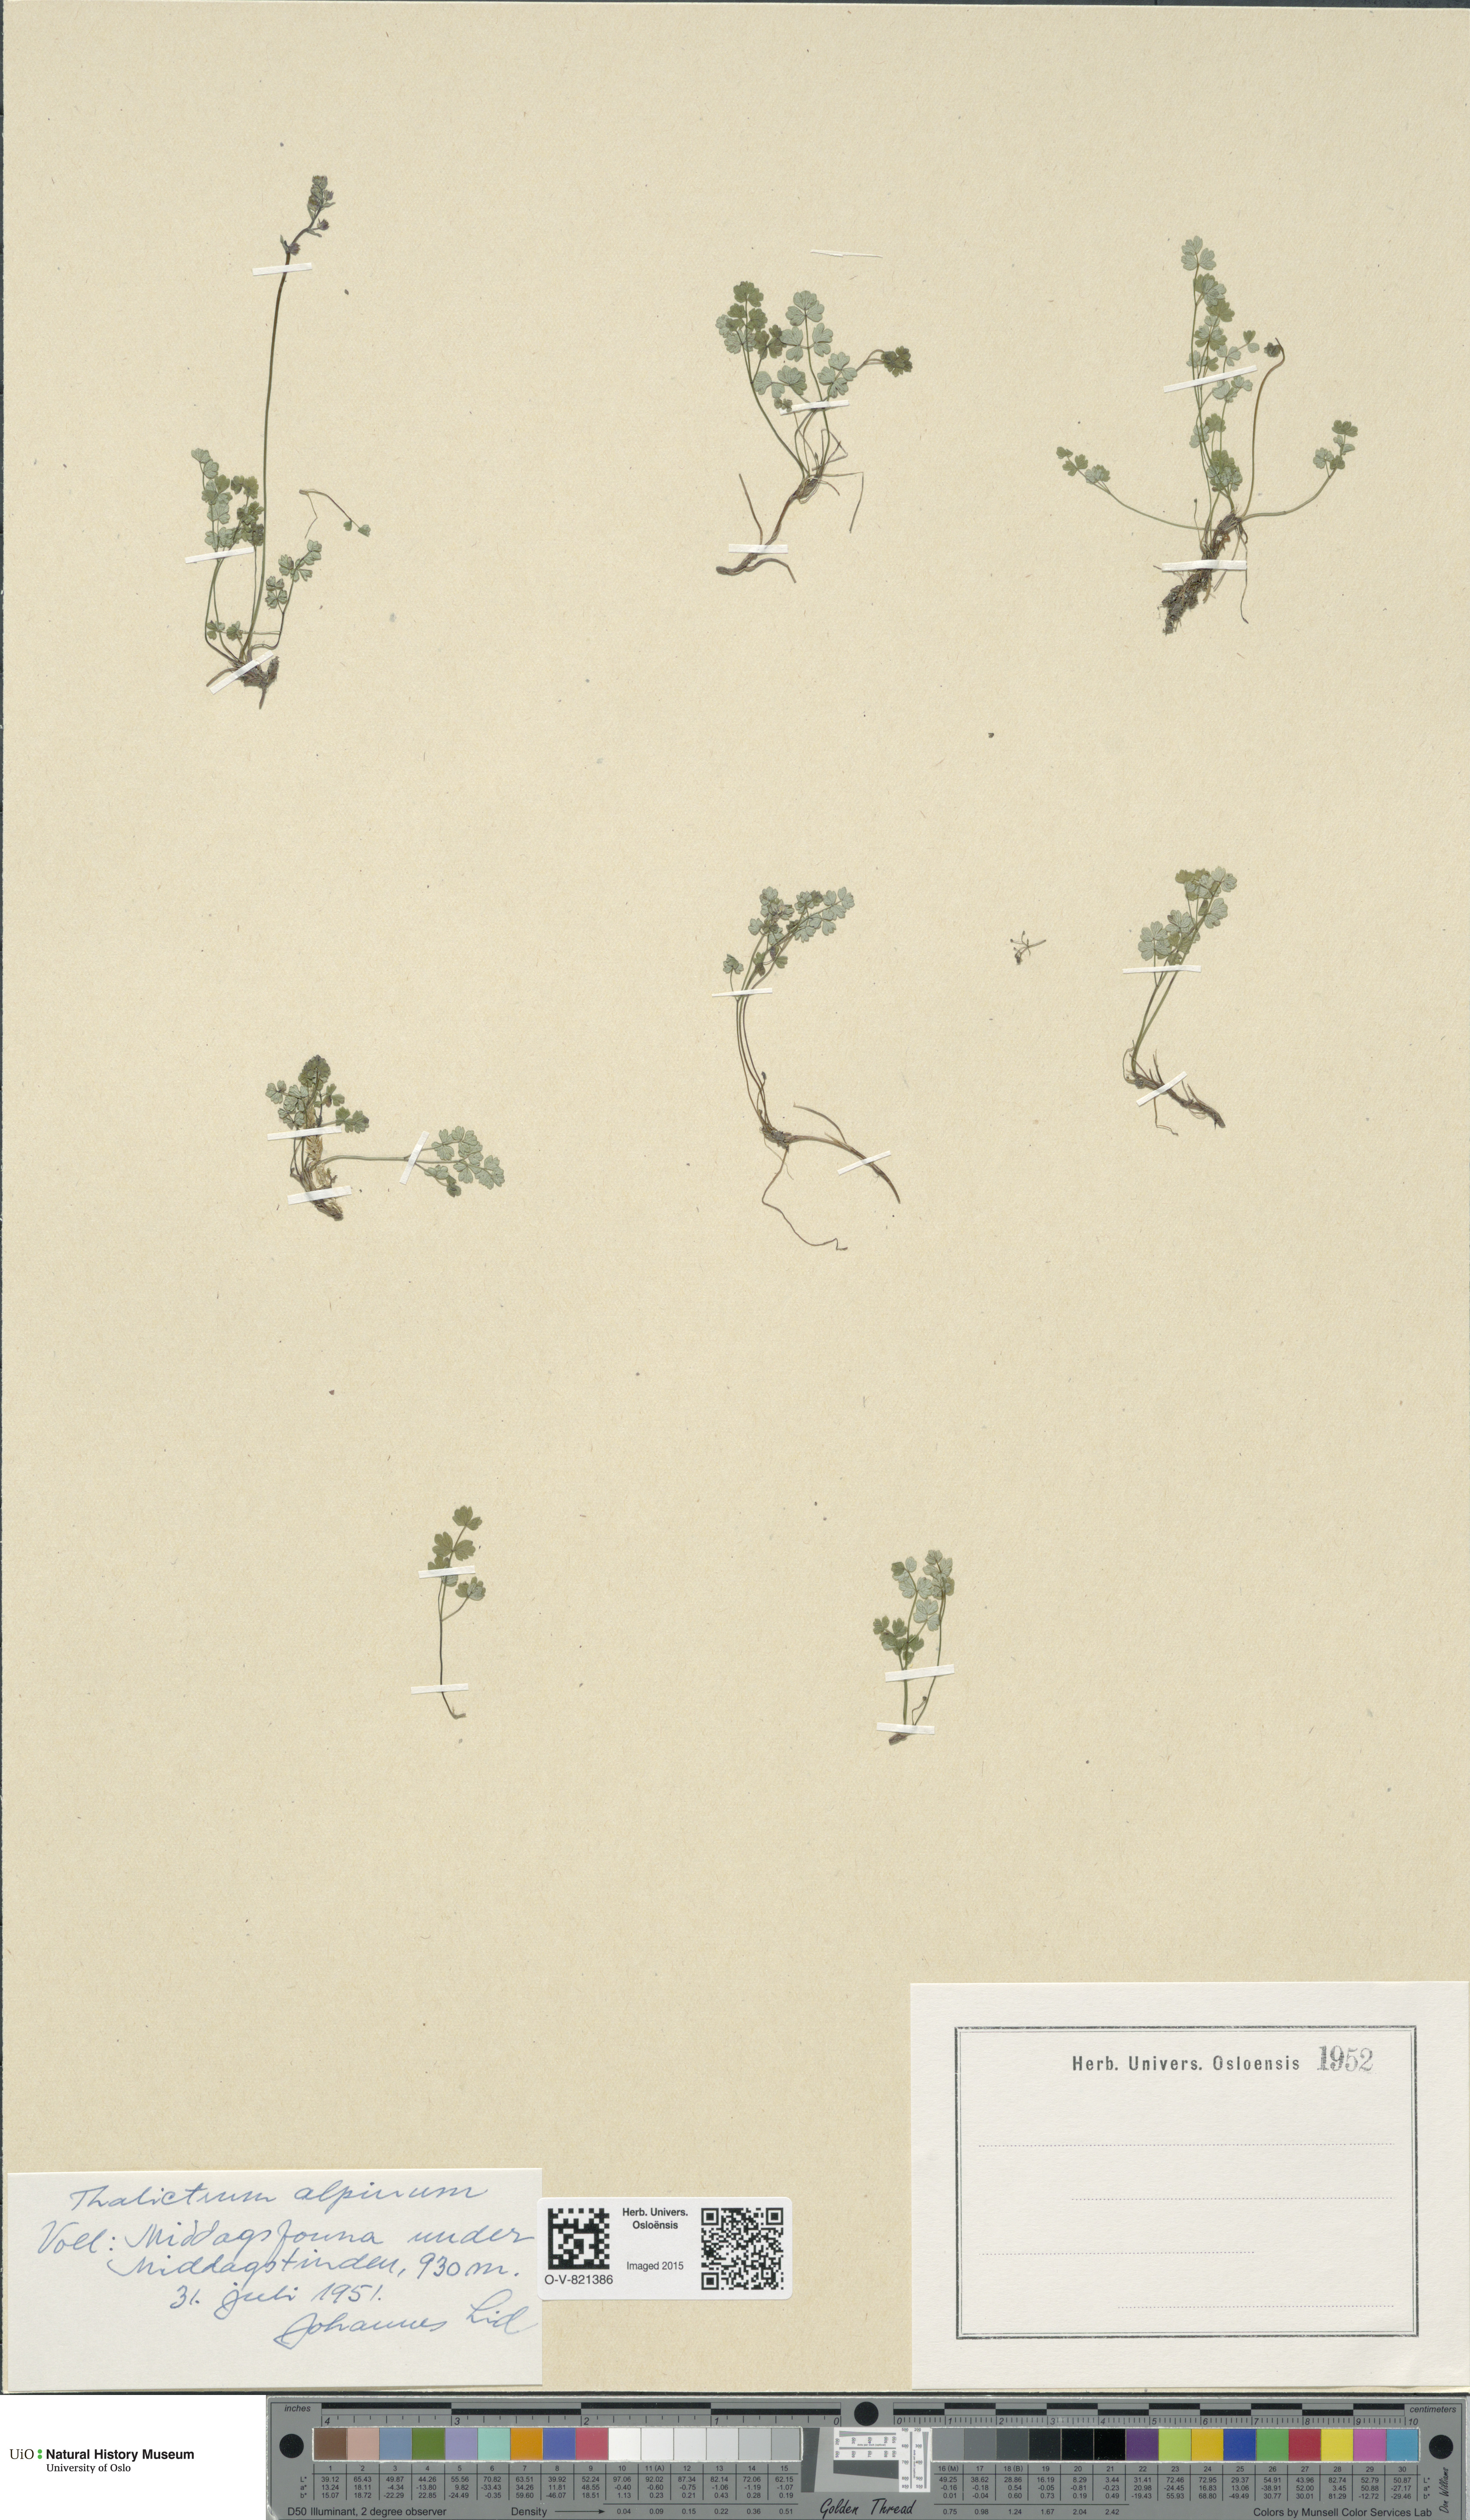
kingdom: Plantae
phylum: Tracheophyta
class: Magnoliopsida
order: Ranunculales
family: Ranunculaceae
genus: Thalictrum
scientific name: Thalictrum alpinum
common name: Alpine meadow-rue
